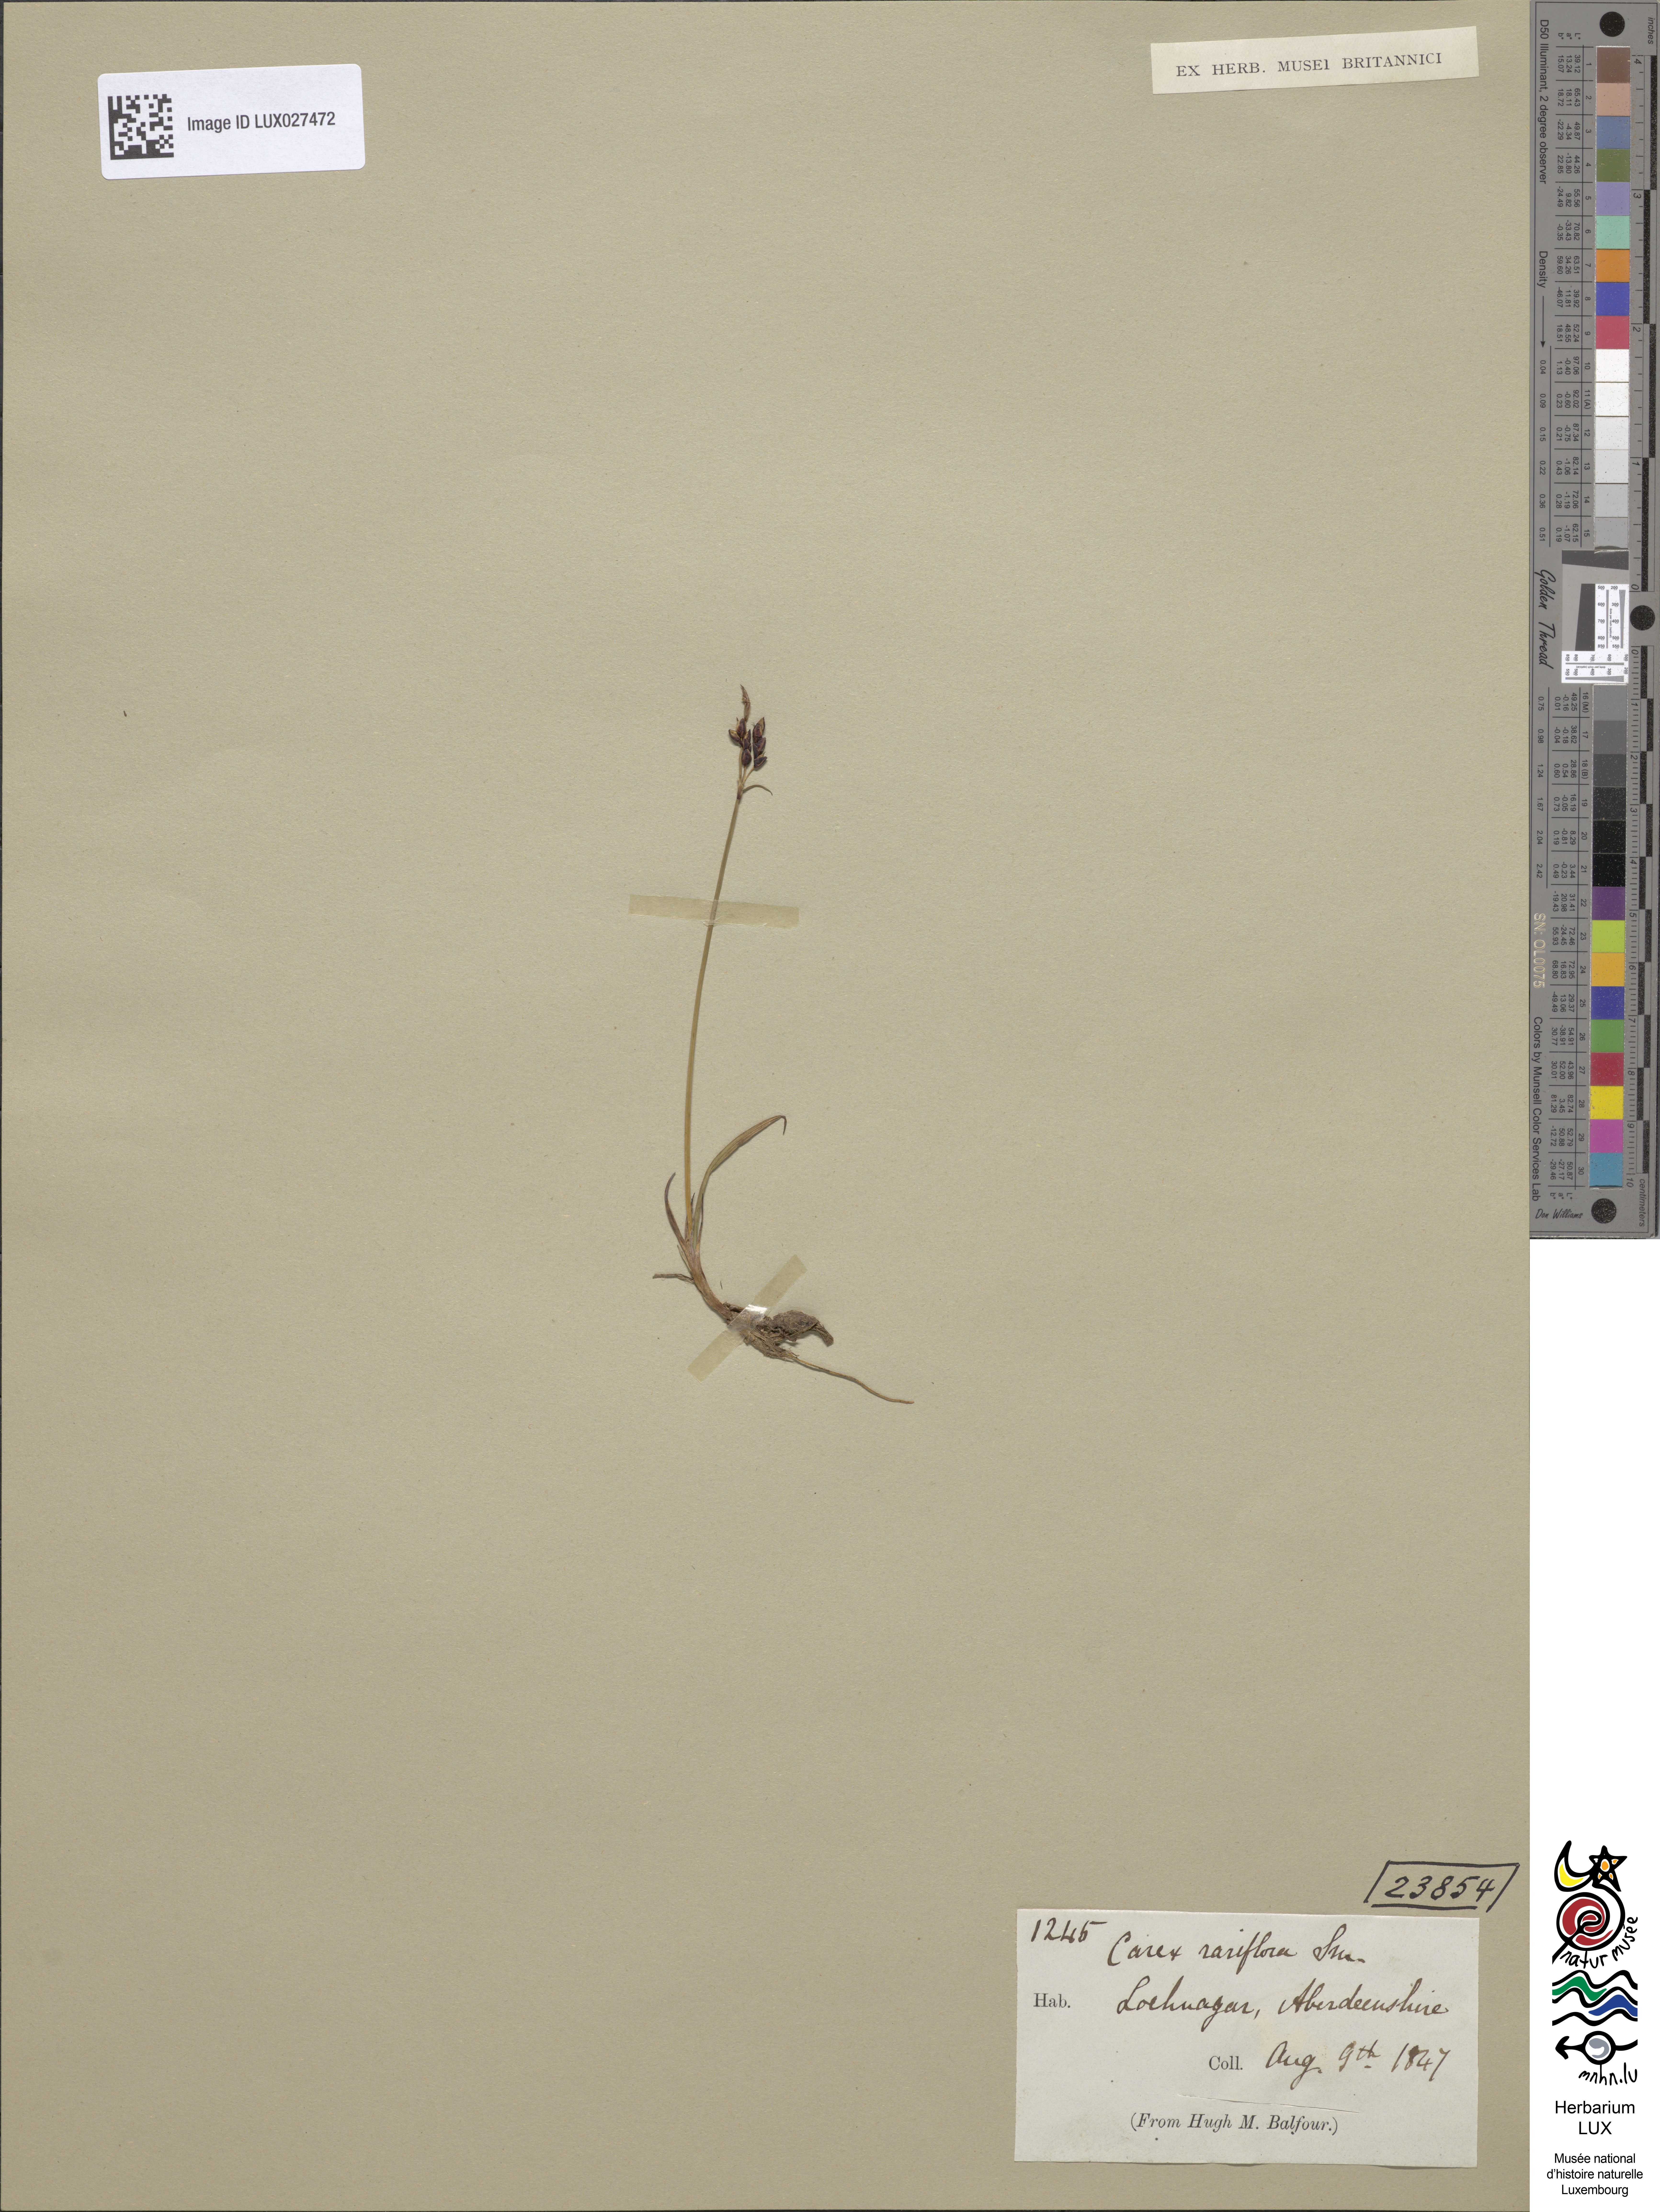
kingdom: Plantae
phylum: Tracheophyta
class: Liliopsida
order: Poales
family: Cyperaceae
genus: Carex
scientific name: Carex rariflora
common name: Loose-flowered alpine sedge
